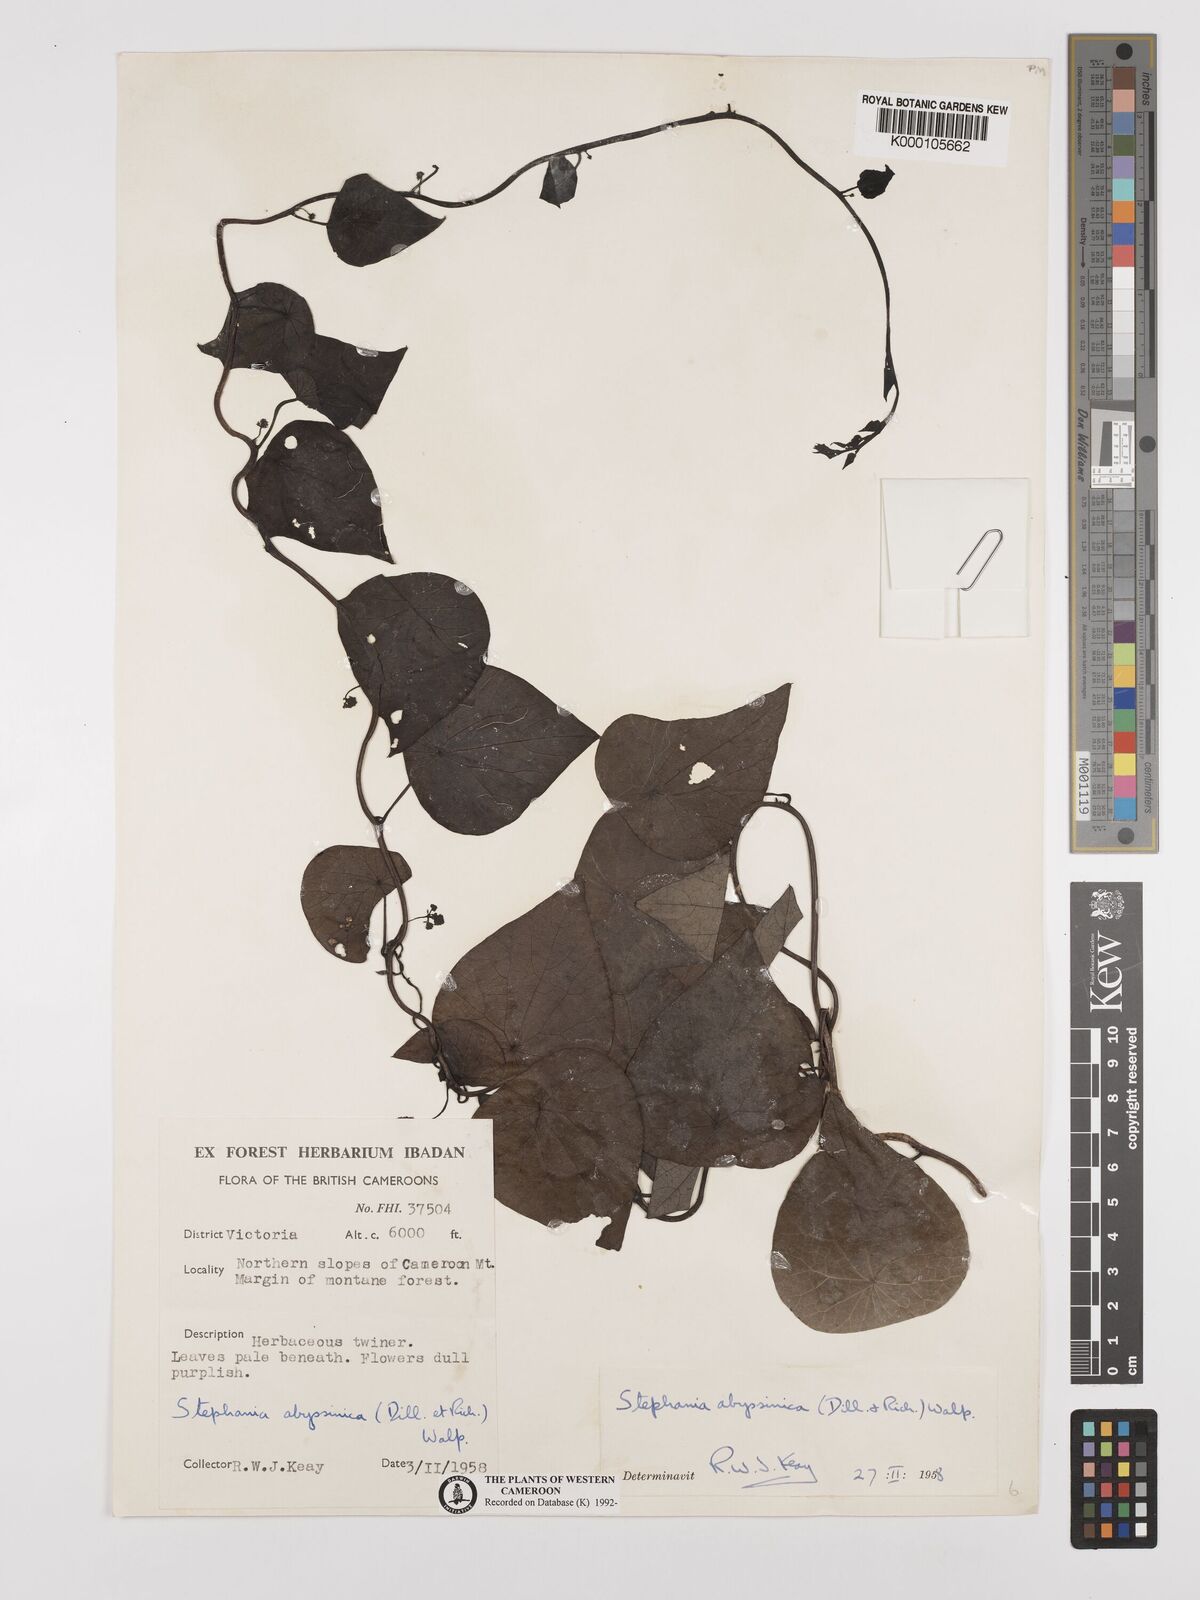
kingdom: Plantae
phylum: Tracheophyta
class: Magnoliopsida
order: Ranunculales
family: Menispermaceae
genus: Stephania
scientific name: Stephania abyssinica
